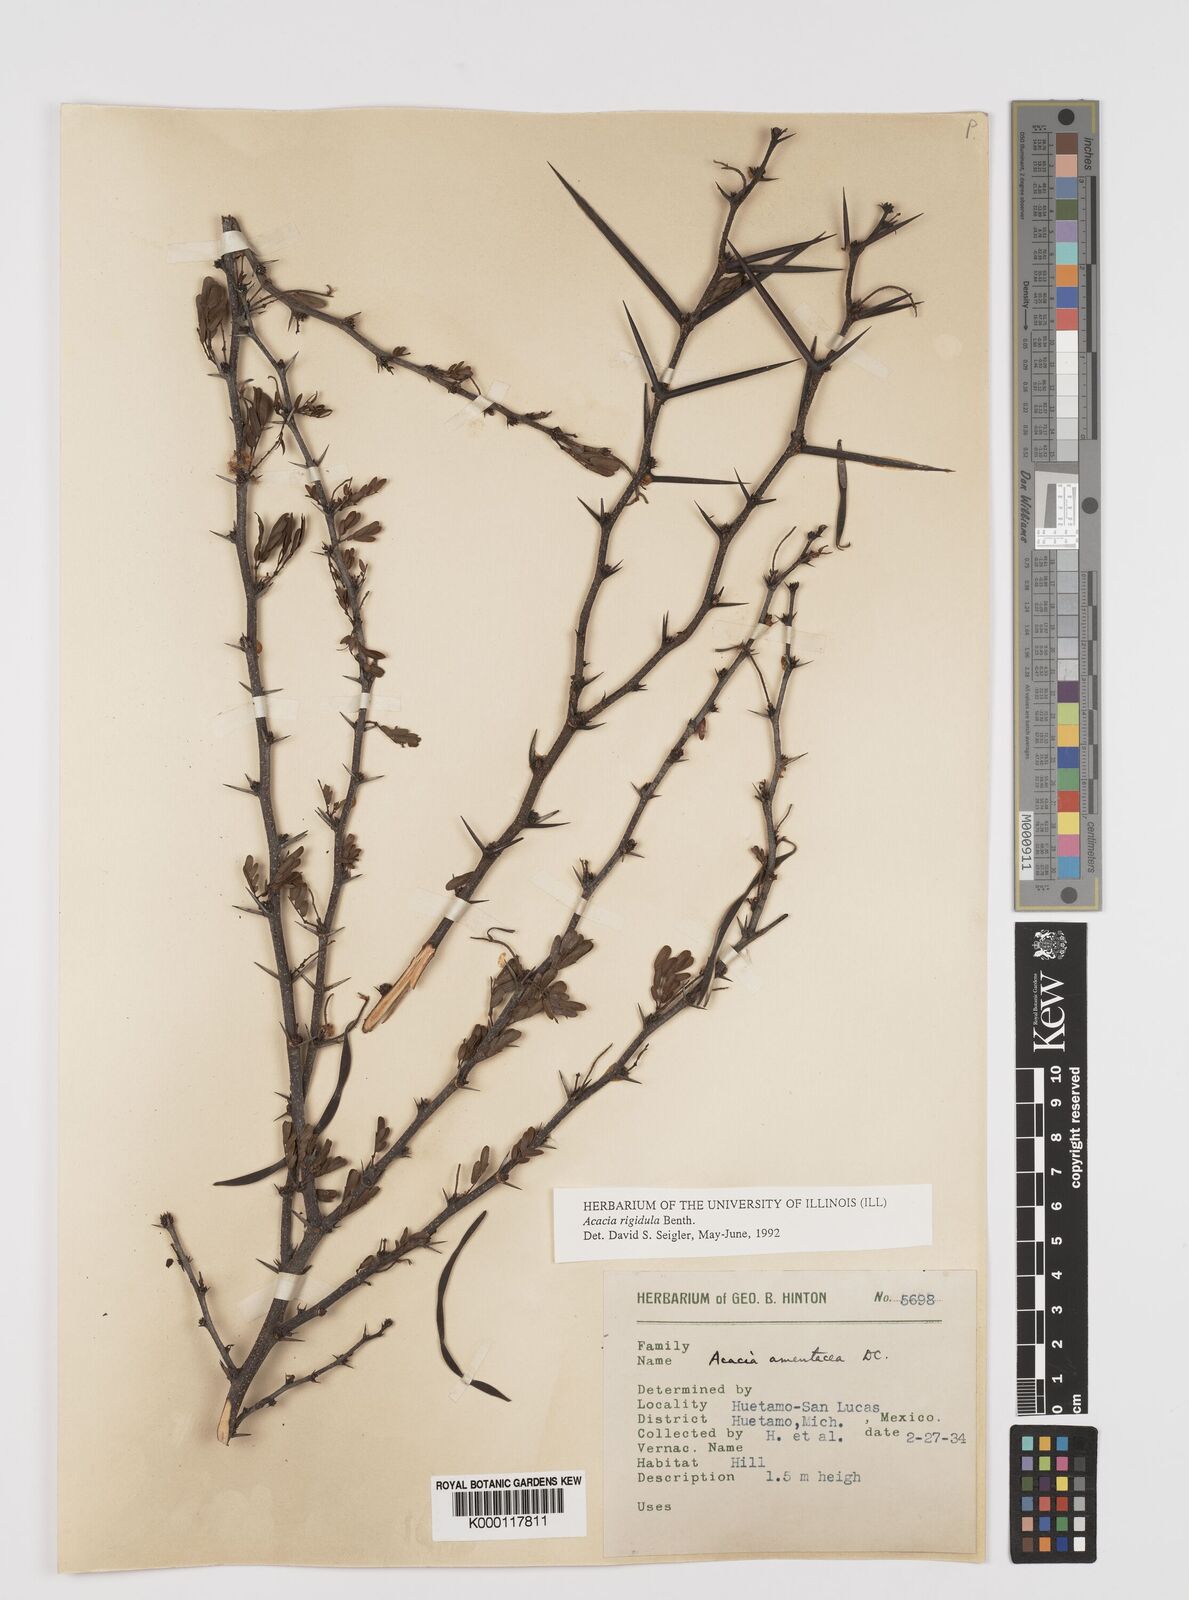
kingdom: Plantae
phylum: Tracheophyta
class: Magnoliopsida
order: Fabales
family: Fabaceae
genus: Vachellia
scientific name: Vachellia rigidula
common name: Blackbrush
